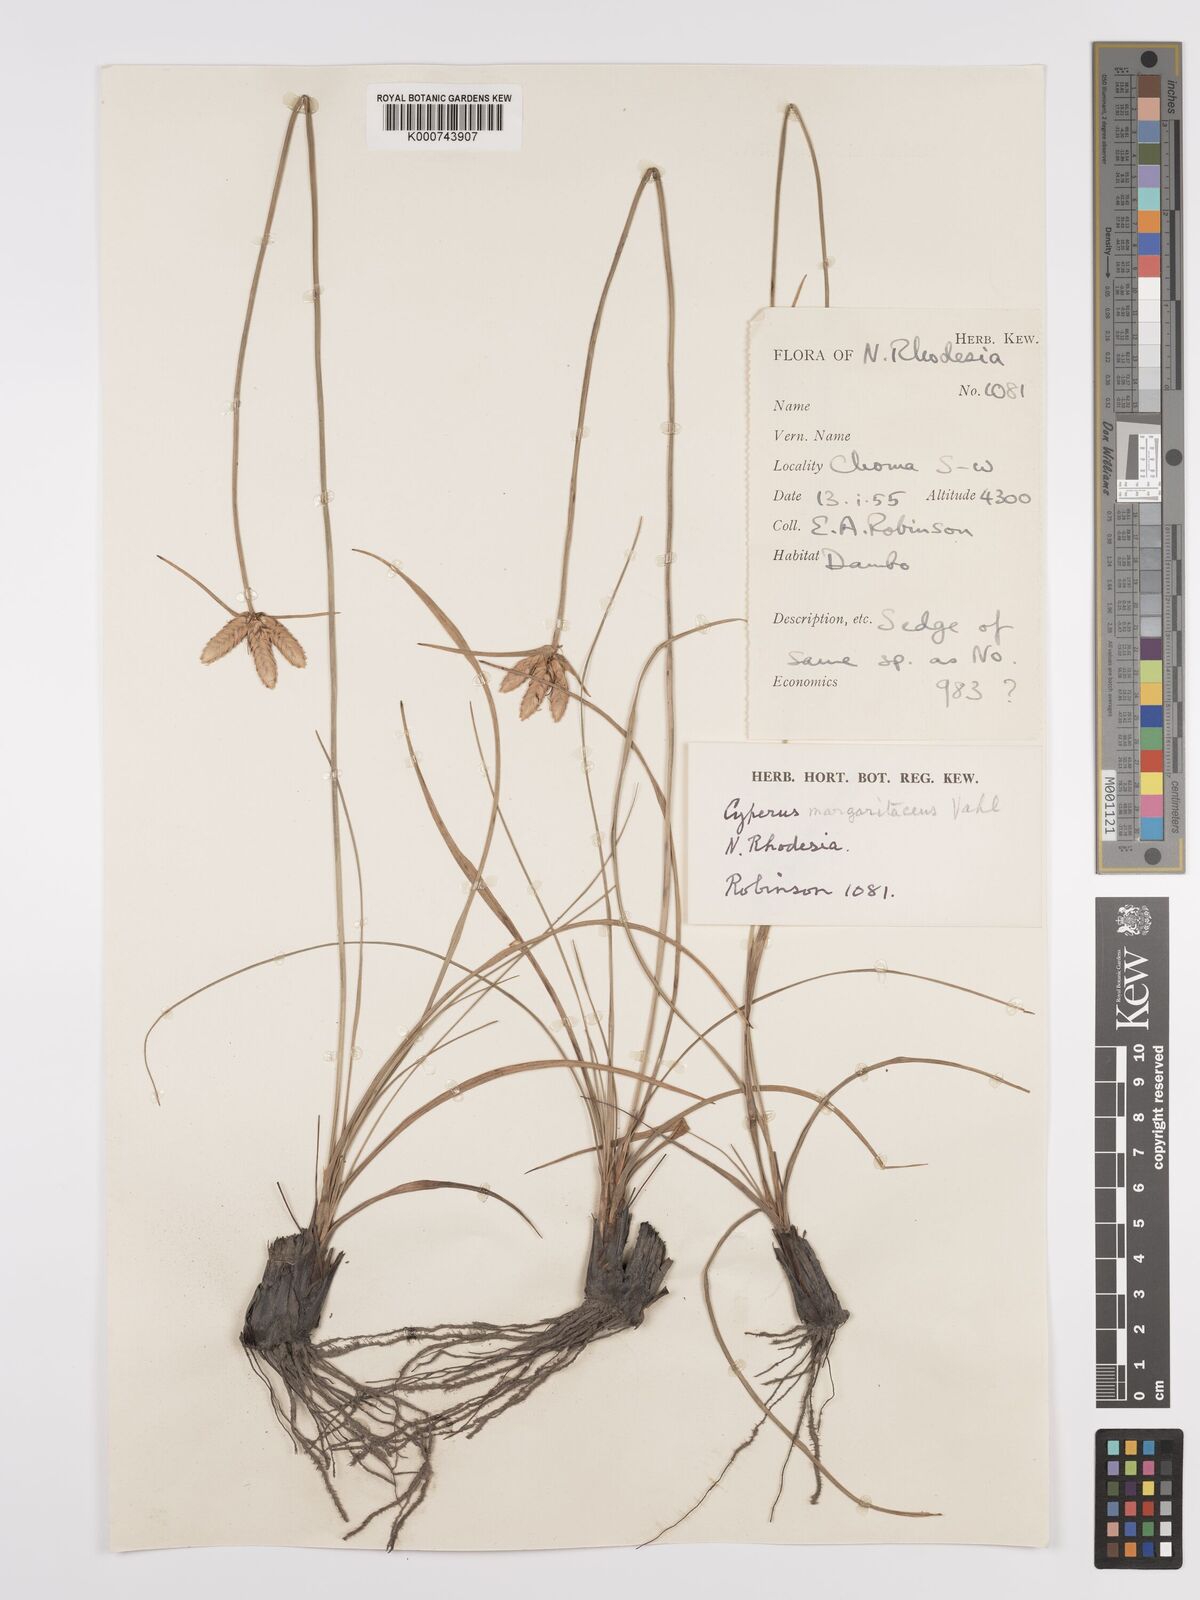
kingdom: Plantae
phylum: Tracheophyta
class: Liliopsida
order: Poales
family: Cyperaceae
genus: Cyperus
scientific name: Cyperus margaritaceus
